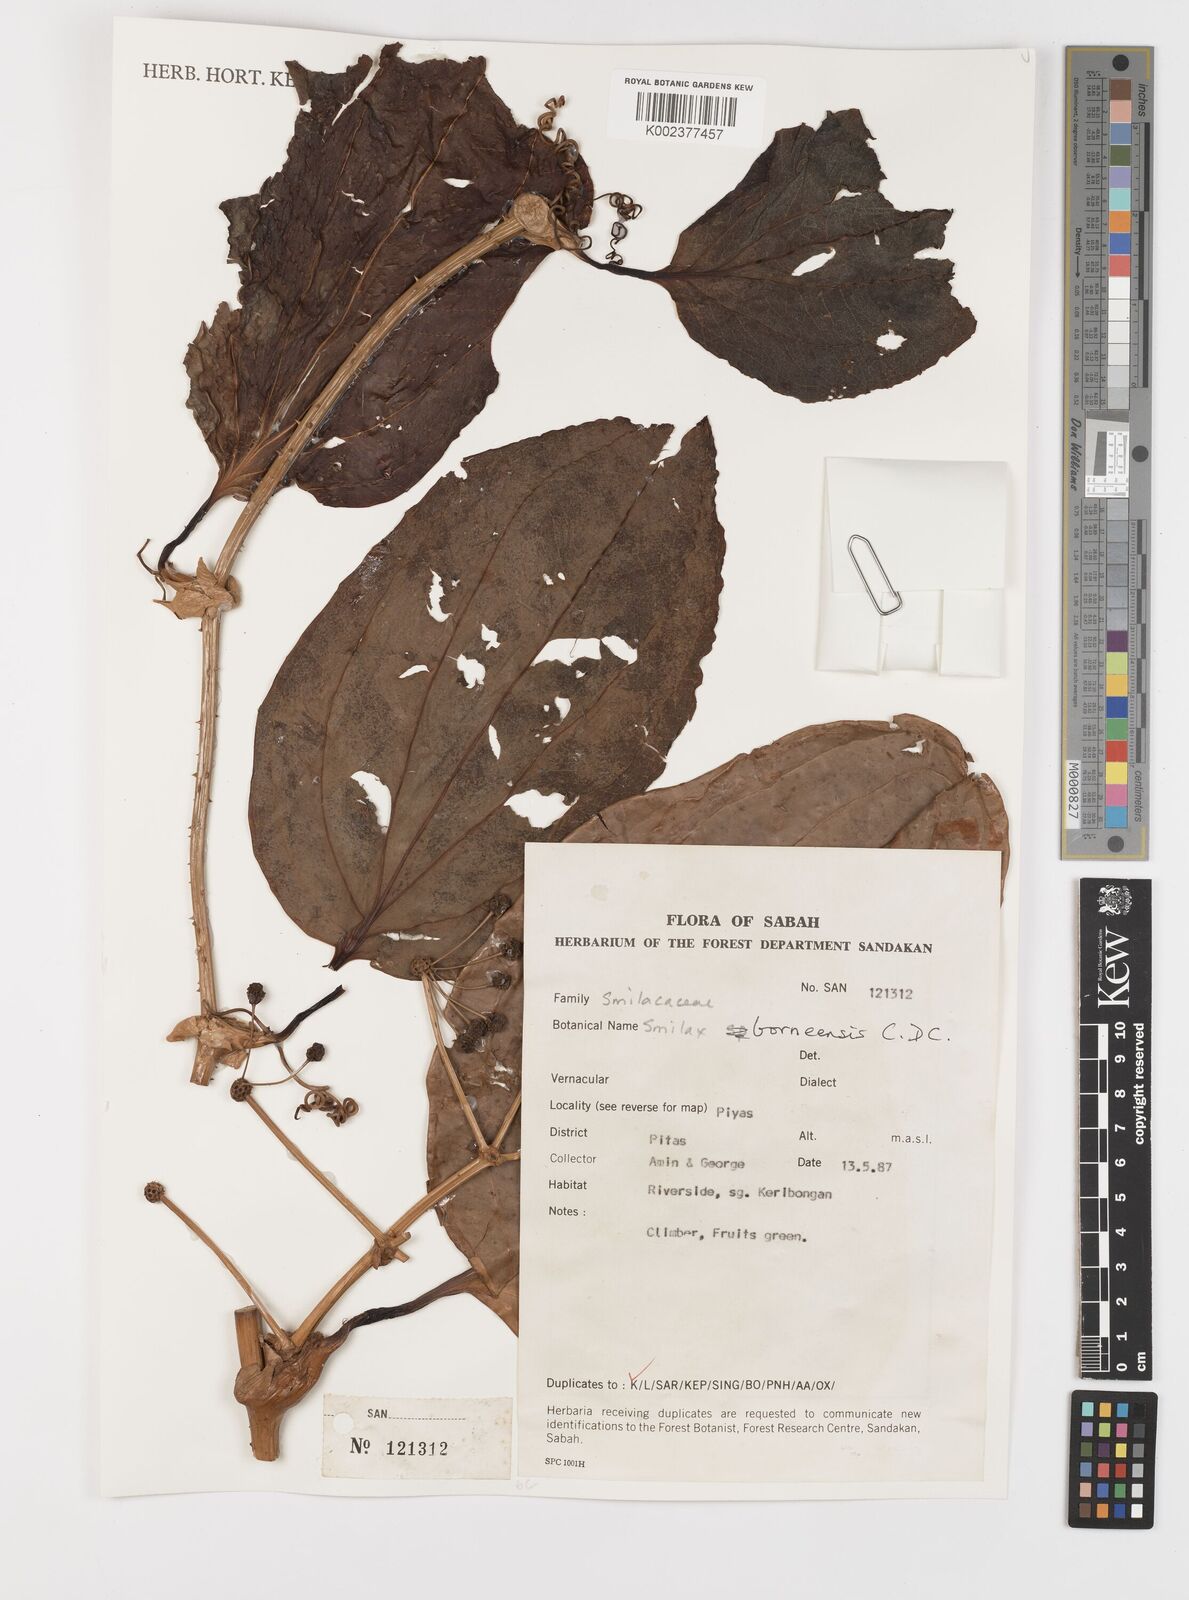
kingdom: Plantae
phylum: Tracheophyta
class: Liliopsida
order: Liliales
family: Smilacaceae
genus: Smilax
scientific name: Smilax borneensis
